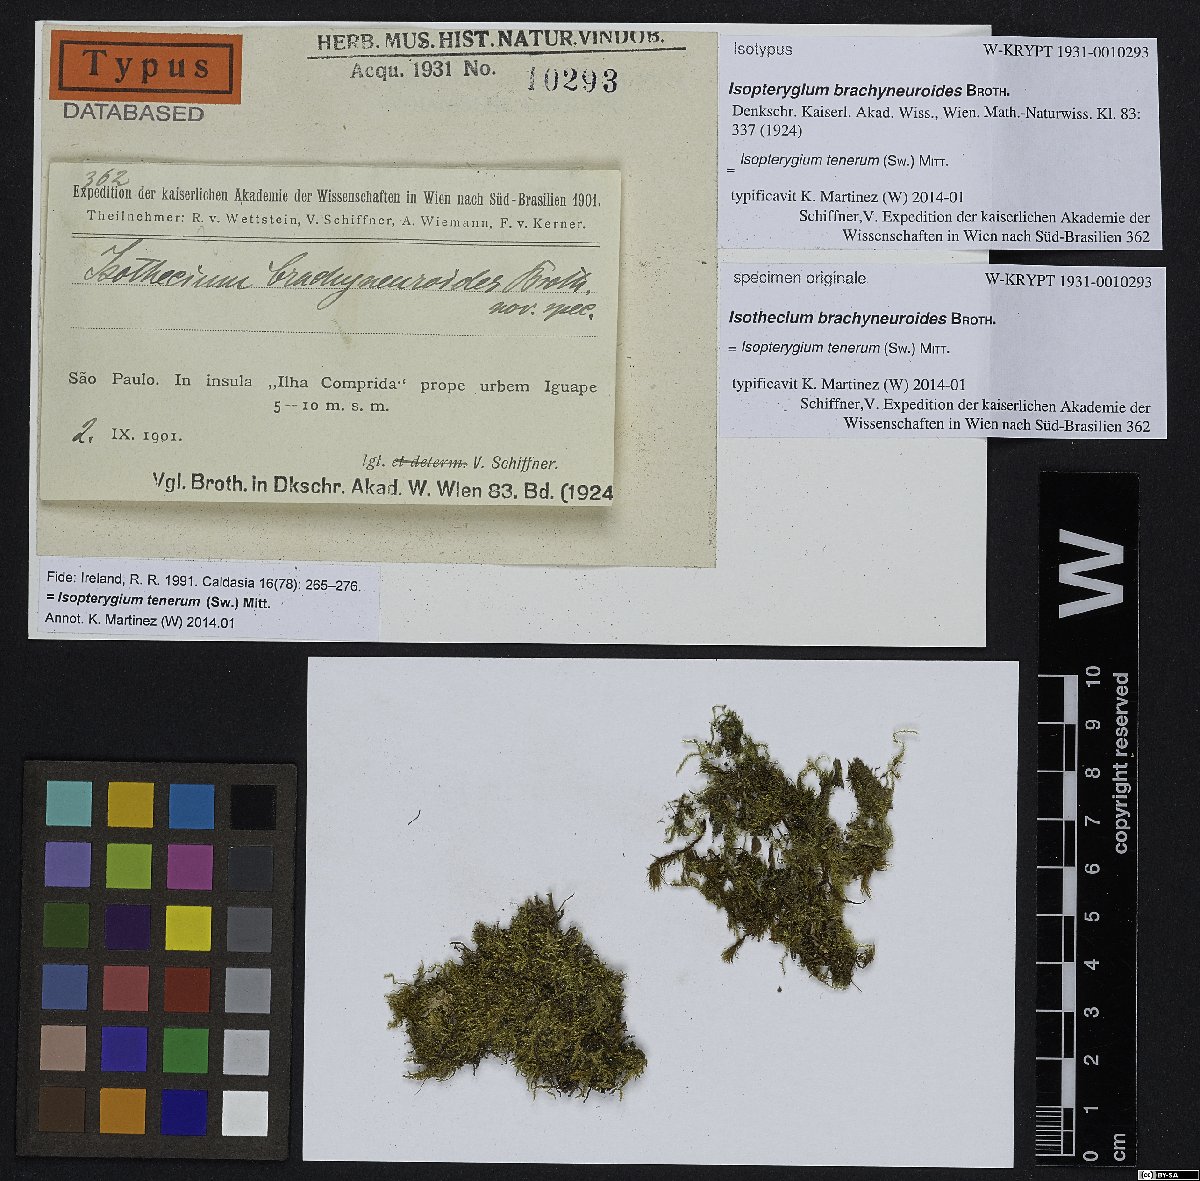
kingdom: Plantae
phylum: Bryophyta
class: Bryopsida
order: Hypnales
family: Pylaisiadelphaceae
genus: Isopterygium
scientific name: Isopterygium tenerum
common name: Isopterygium moss
